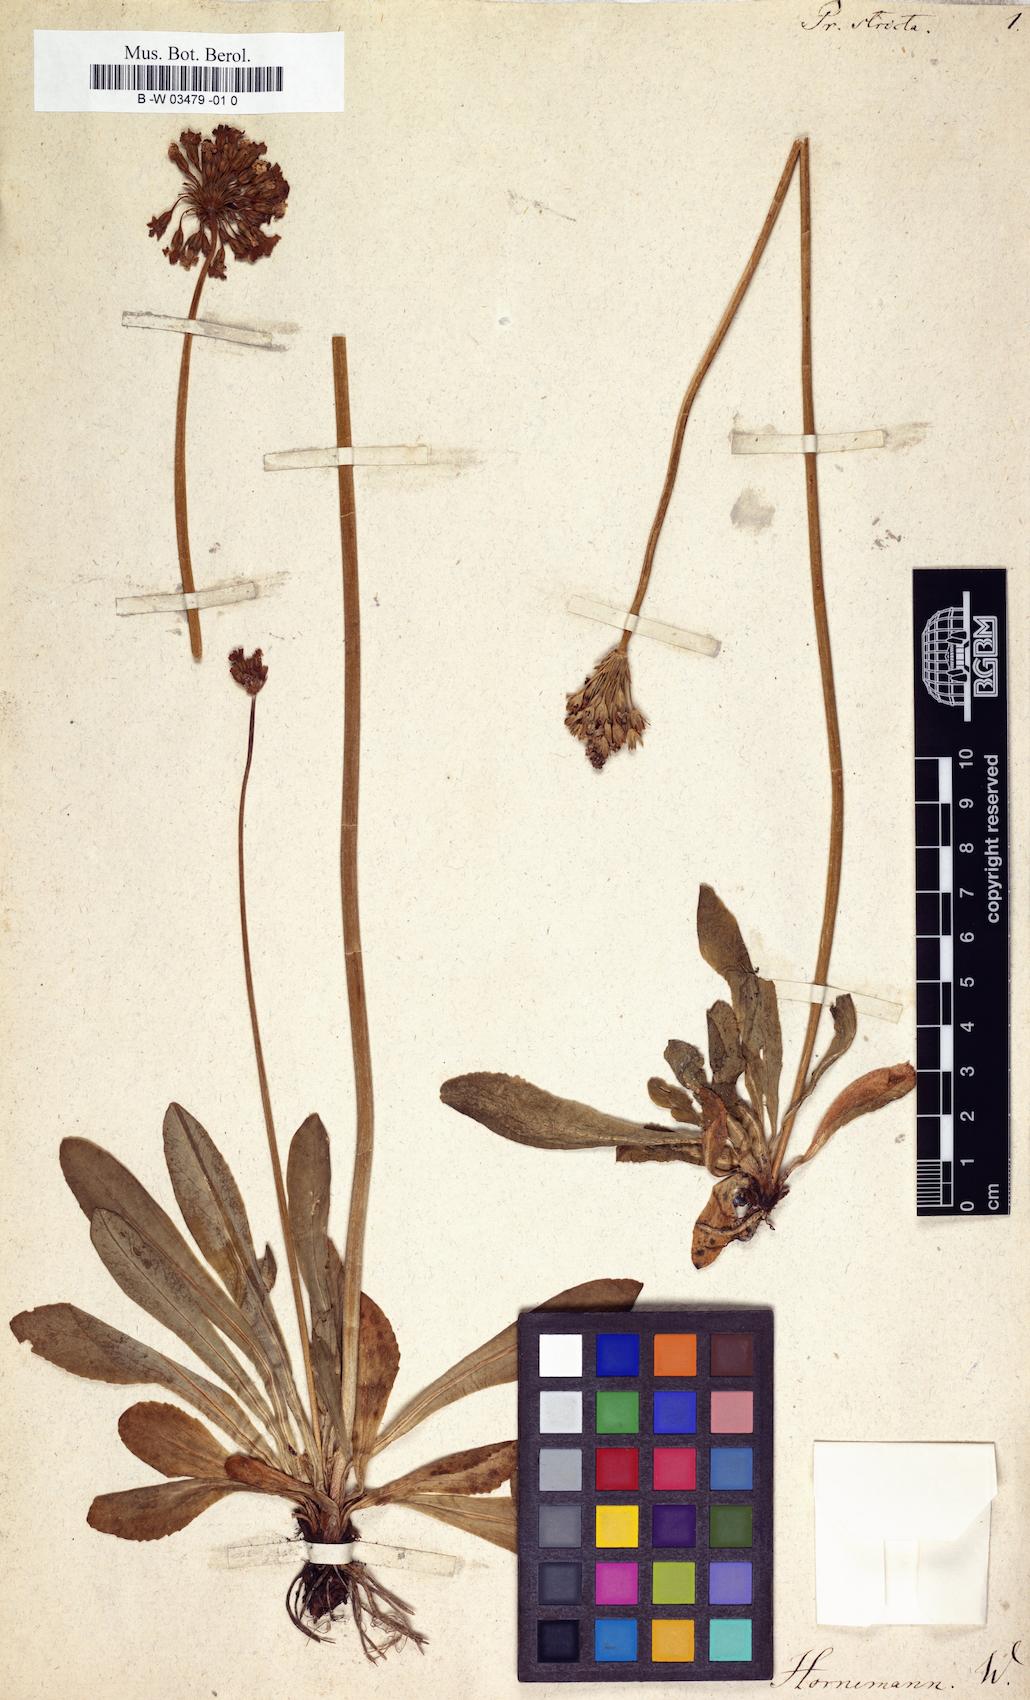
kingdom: Plantae
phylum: Tracheophyta
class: Magnoliopsida
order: Ericales
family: Primulaceae
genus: Primula
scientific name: Primula stricta
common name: Coastal primrose
